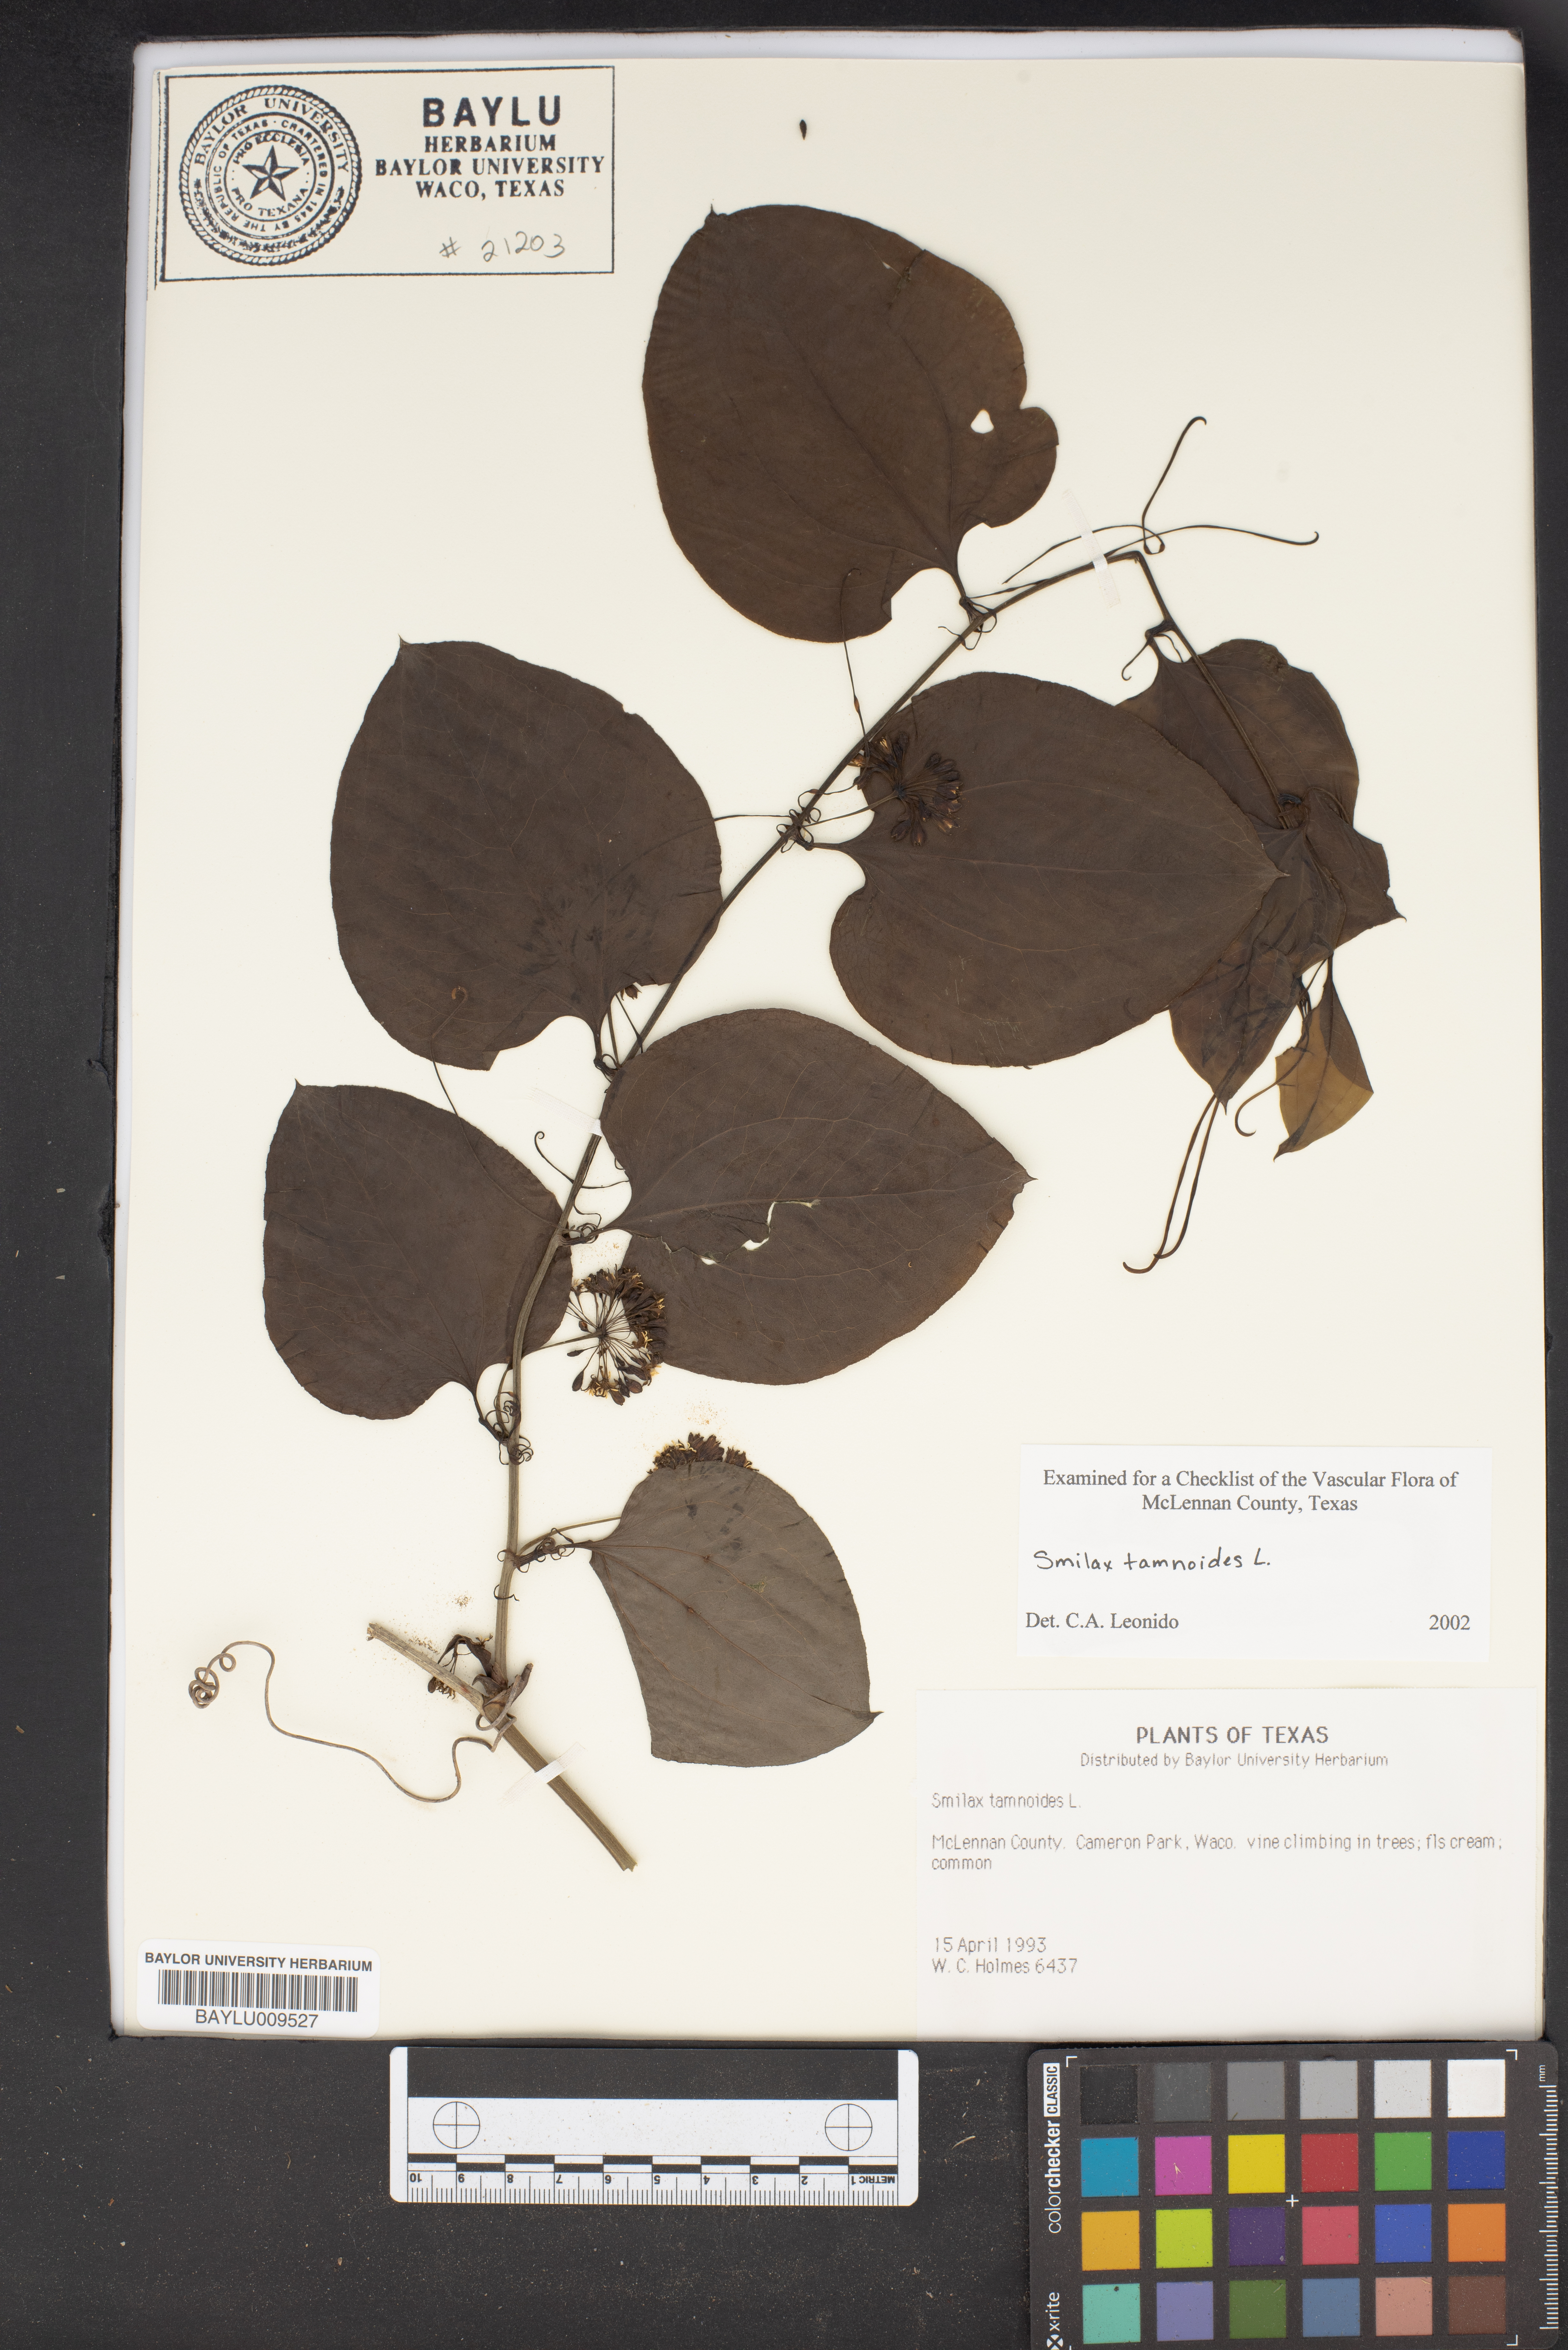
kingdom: Plantae
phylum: Tracheophyta
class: Liliopsida
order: Liliales
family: Smilacaceae
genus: Smilax
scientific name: Smilax tamnoides
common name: Hellfetter
